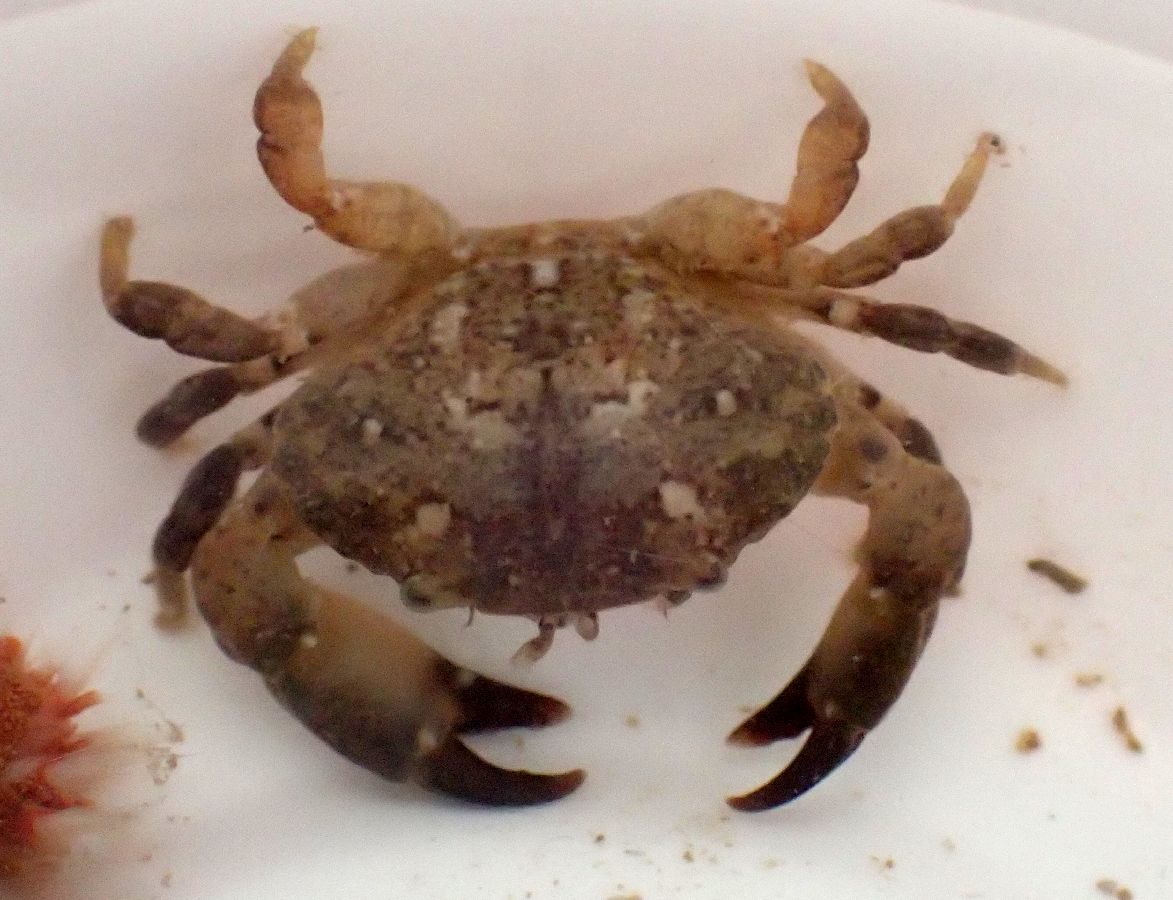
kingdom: Animalia
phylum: Arthropoda
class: Malacostraca
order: Decapoda
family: Xanthidae
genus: Xantho
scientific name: Xantho poressa
